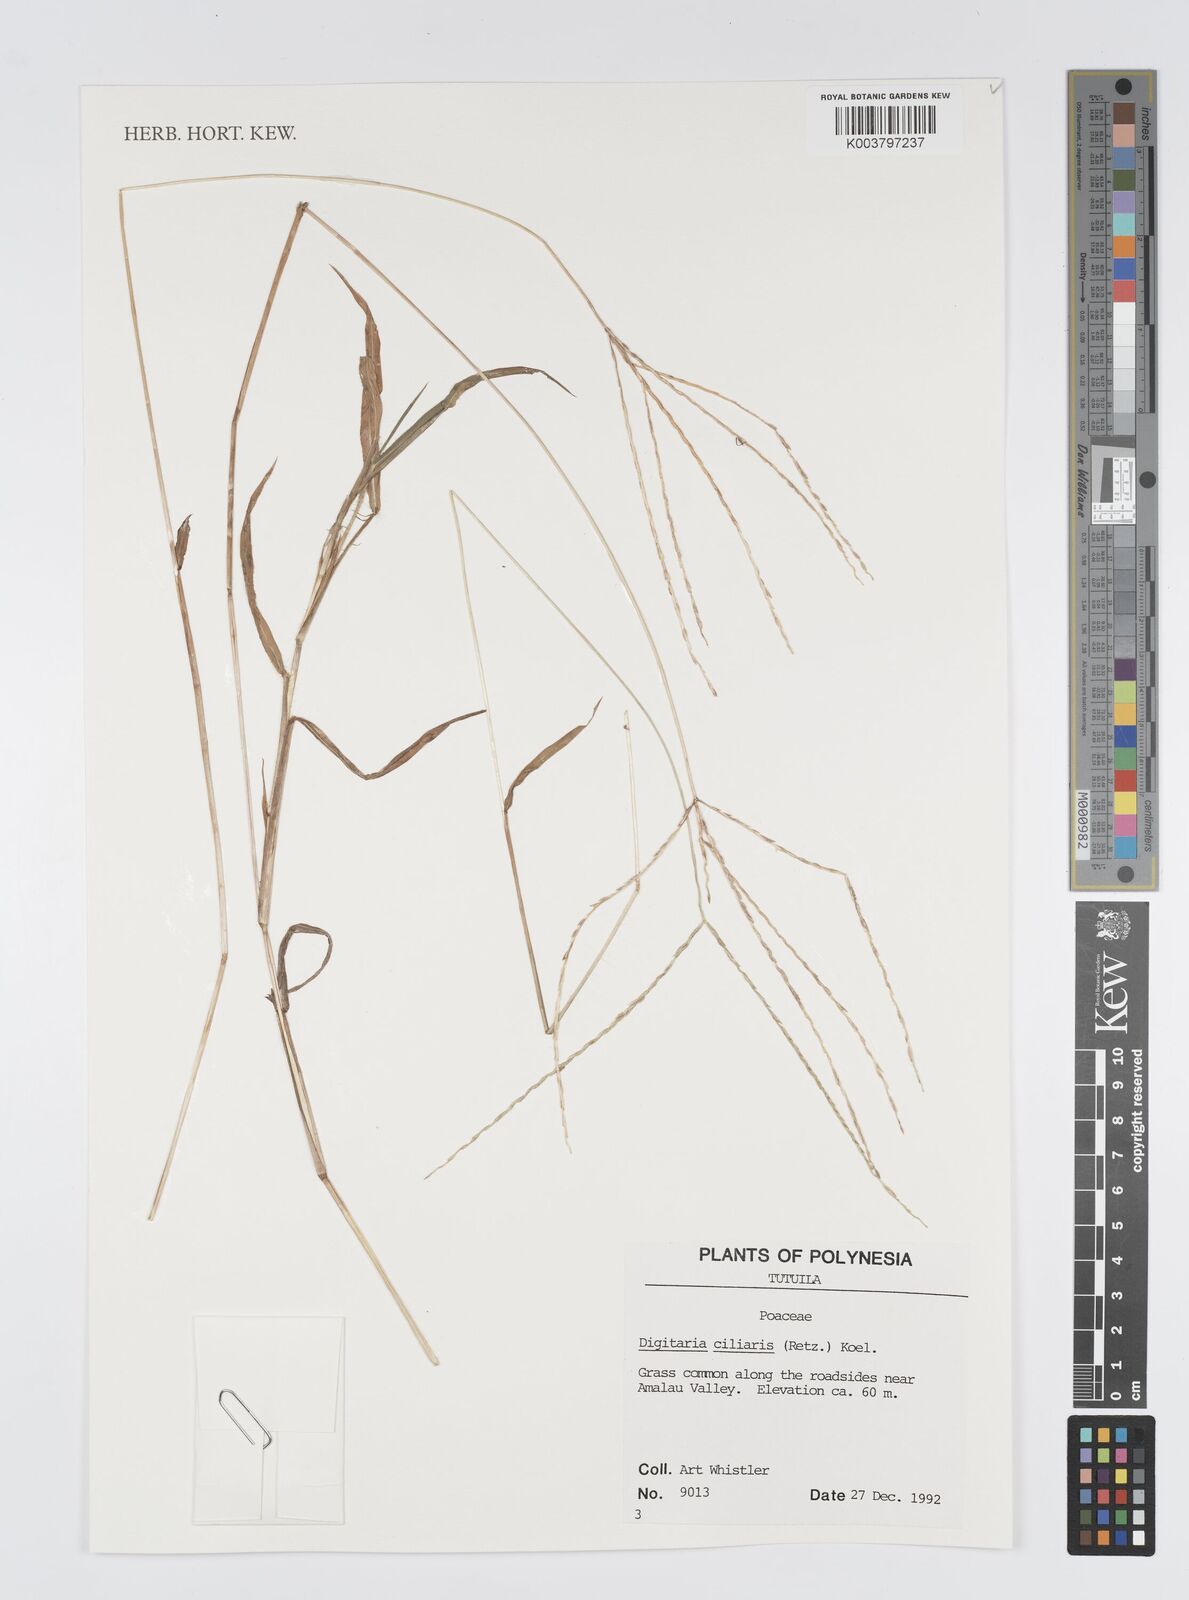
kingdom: Plantae
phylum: Tracheophyta
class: Liliopsida
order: Poales
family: Poaceae
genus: Digitaria
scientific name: Digitaria ciliaris
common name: Tropical finger-grass
